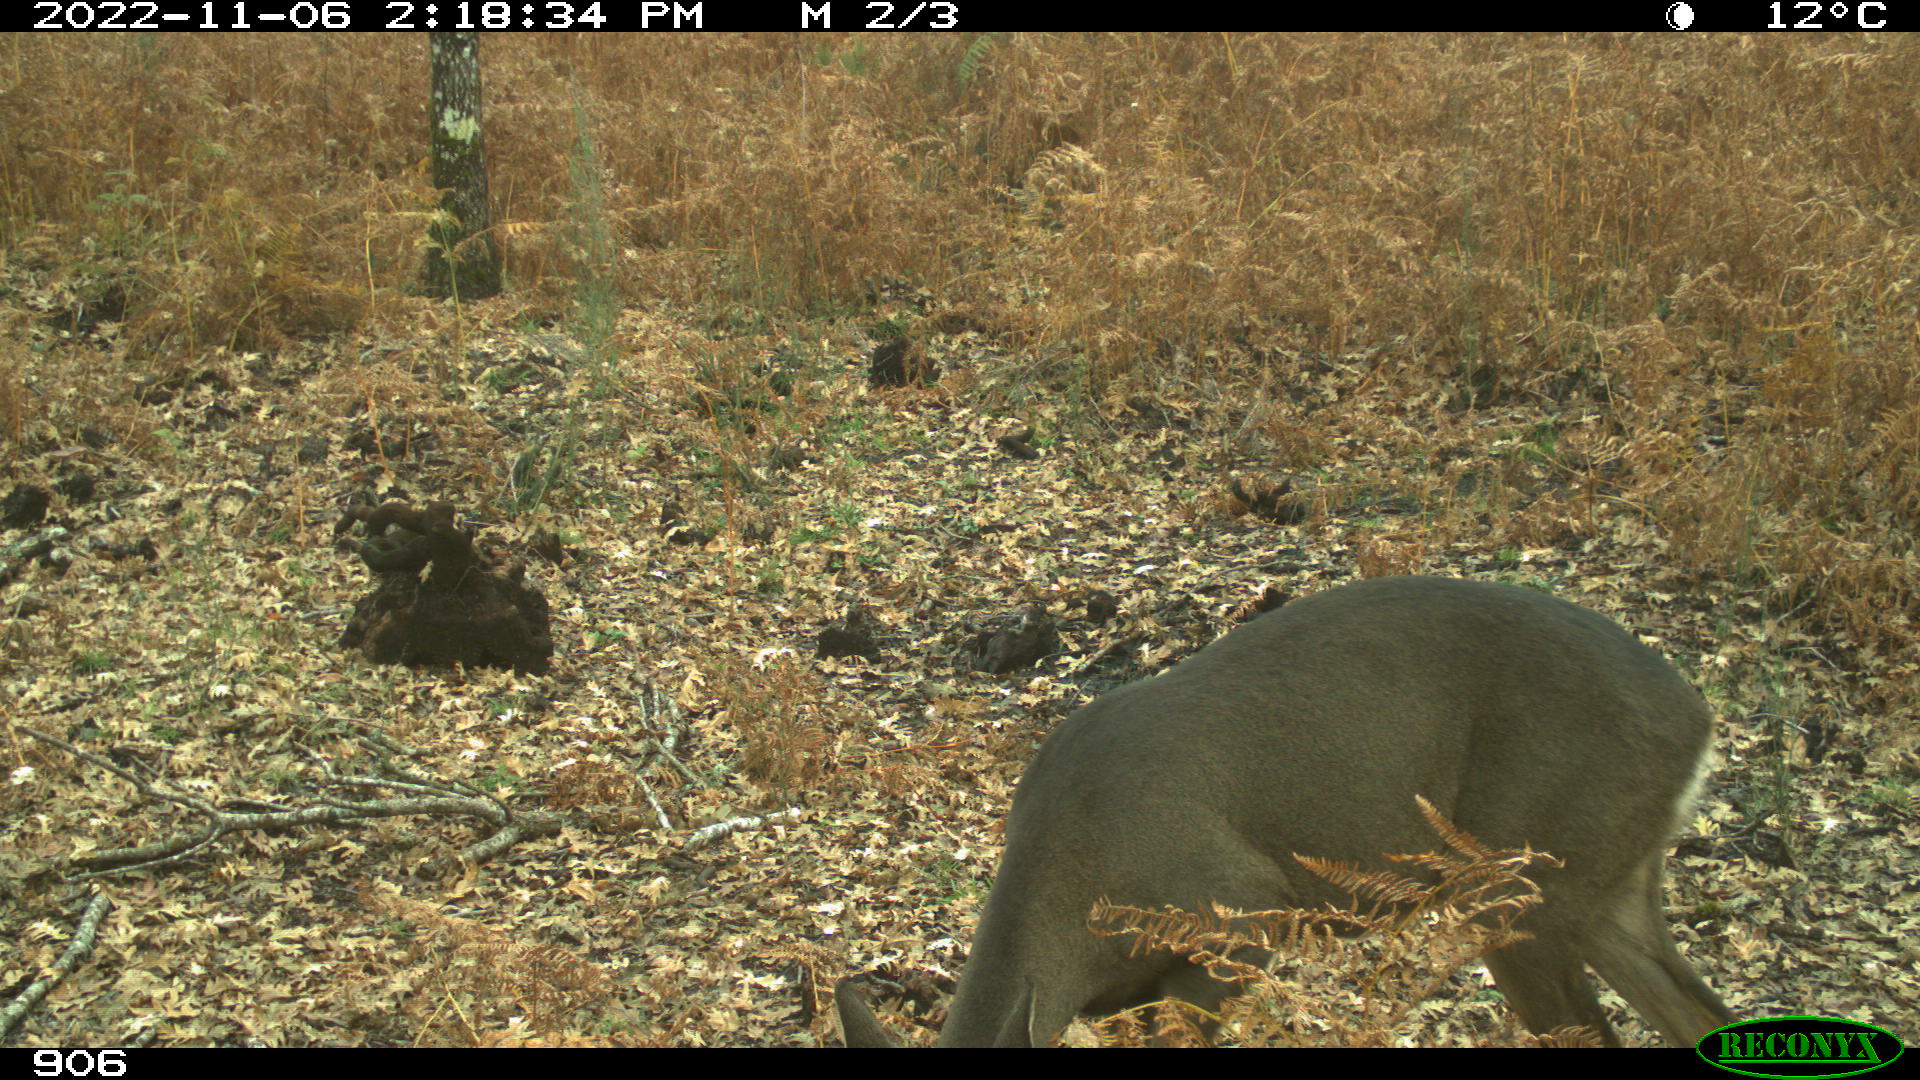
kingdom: Animalia
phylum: Chordata
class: Mammalia
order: Artiodactyla
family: Cervidae
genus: Capreolus
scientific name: Capreolus capreolus
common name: Western roe deer
